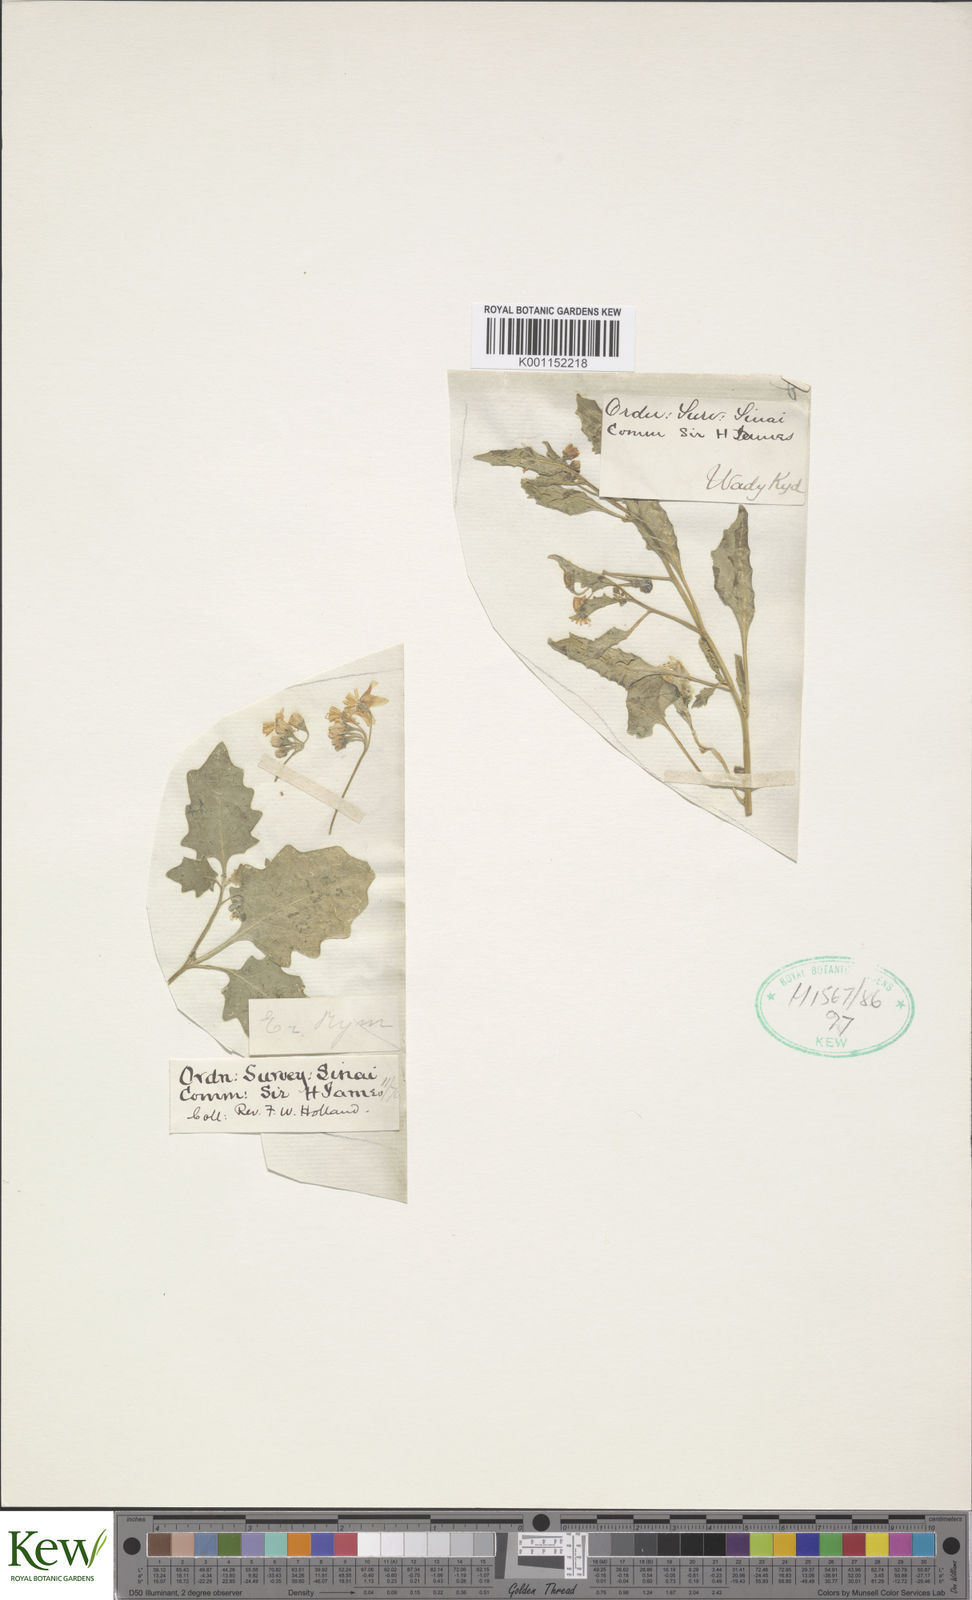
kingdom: Plantae
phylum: Tracheophyta
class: Magnoliopsida
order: Solanales
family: Solanaceae
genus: Solanum
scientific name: Solanum
